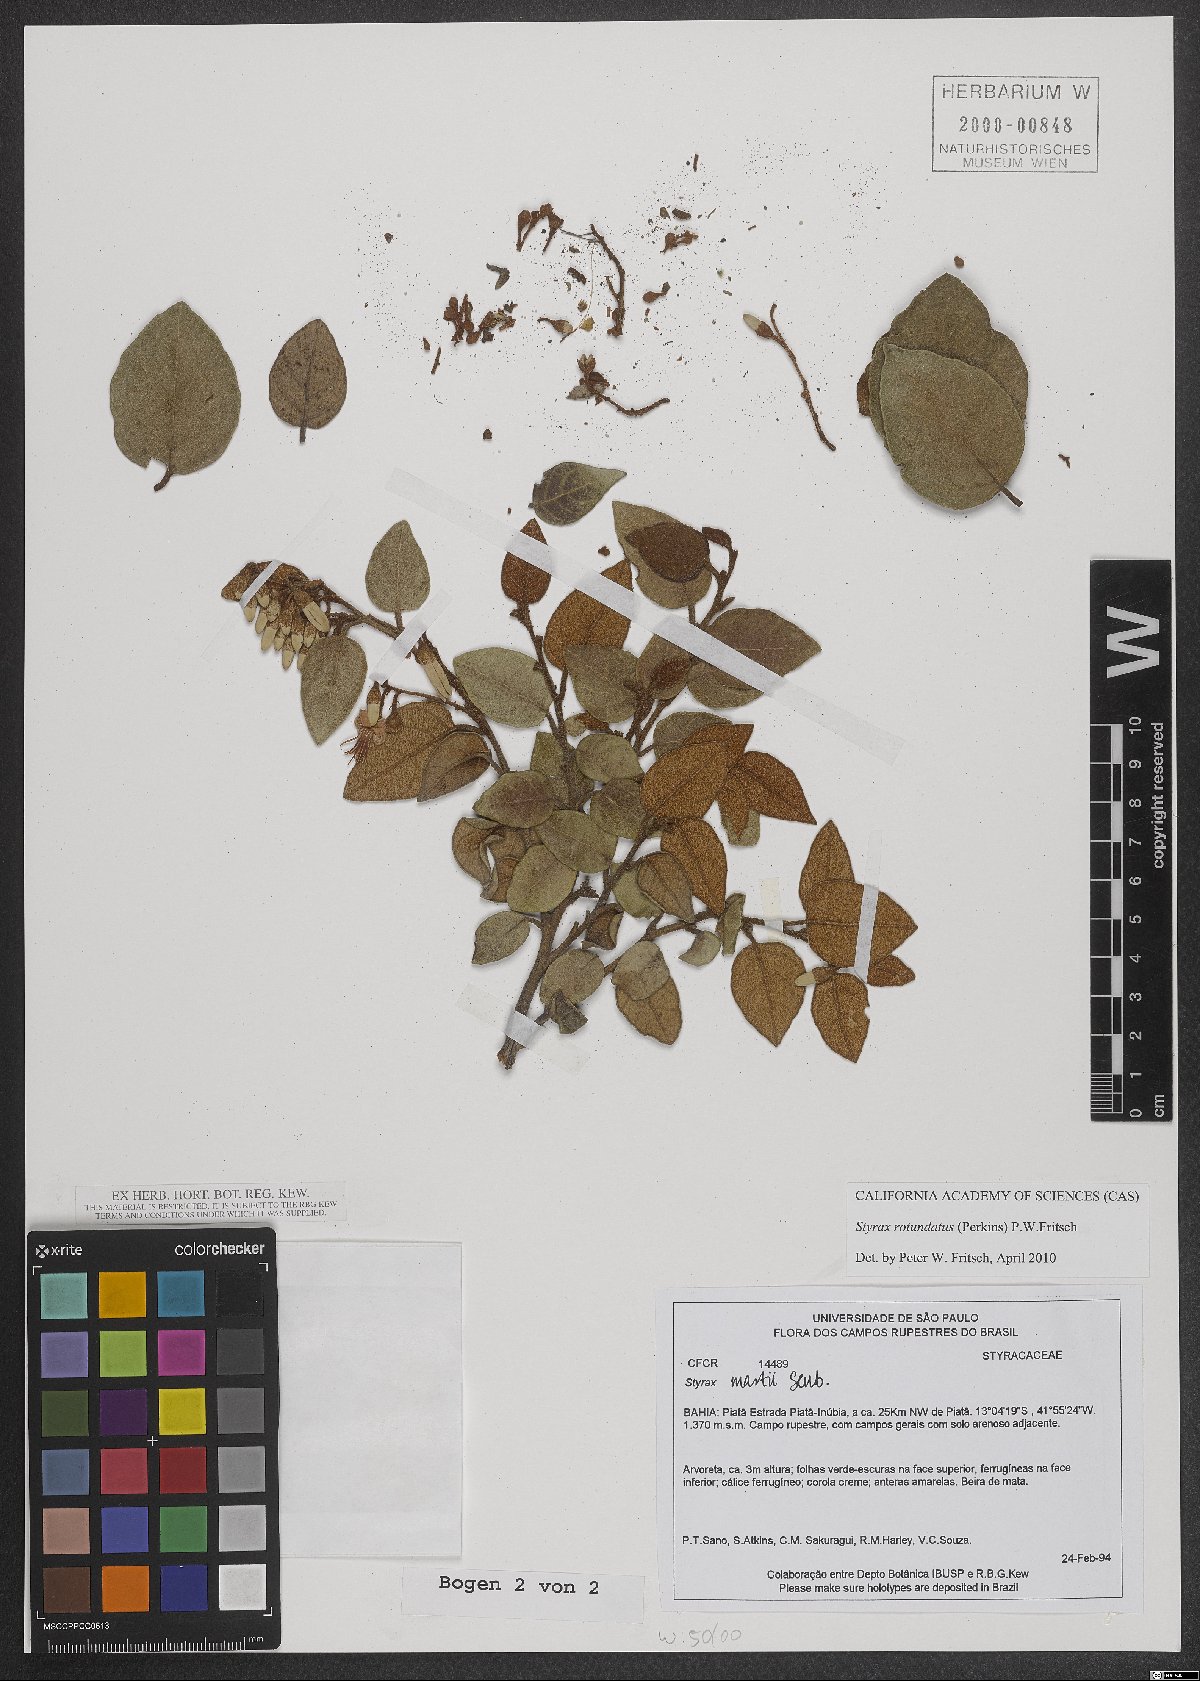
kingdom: Plantae
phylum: Tracheophyta
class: Magnoliopsida
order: Ericales
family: Styracaceae
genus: Styrax
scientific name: Styrax rotundatus
